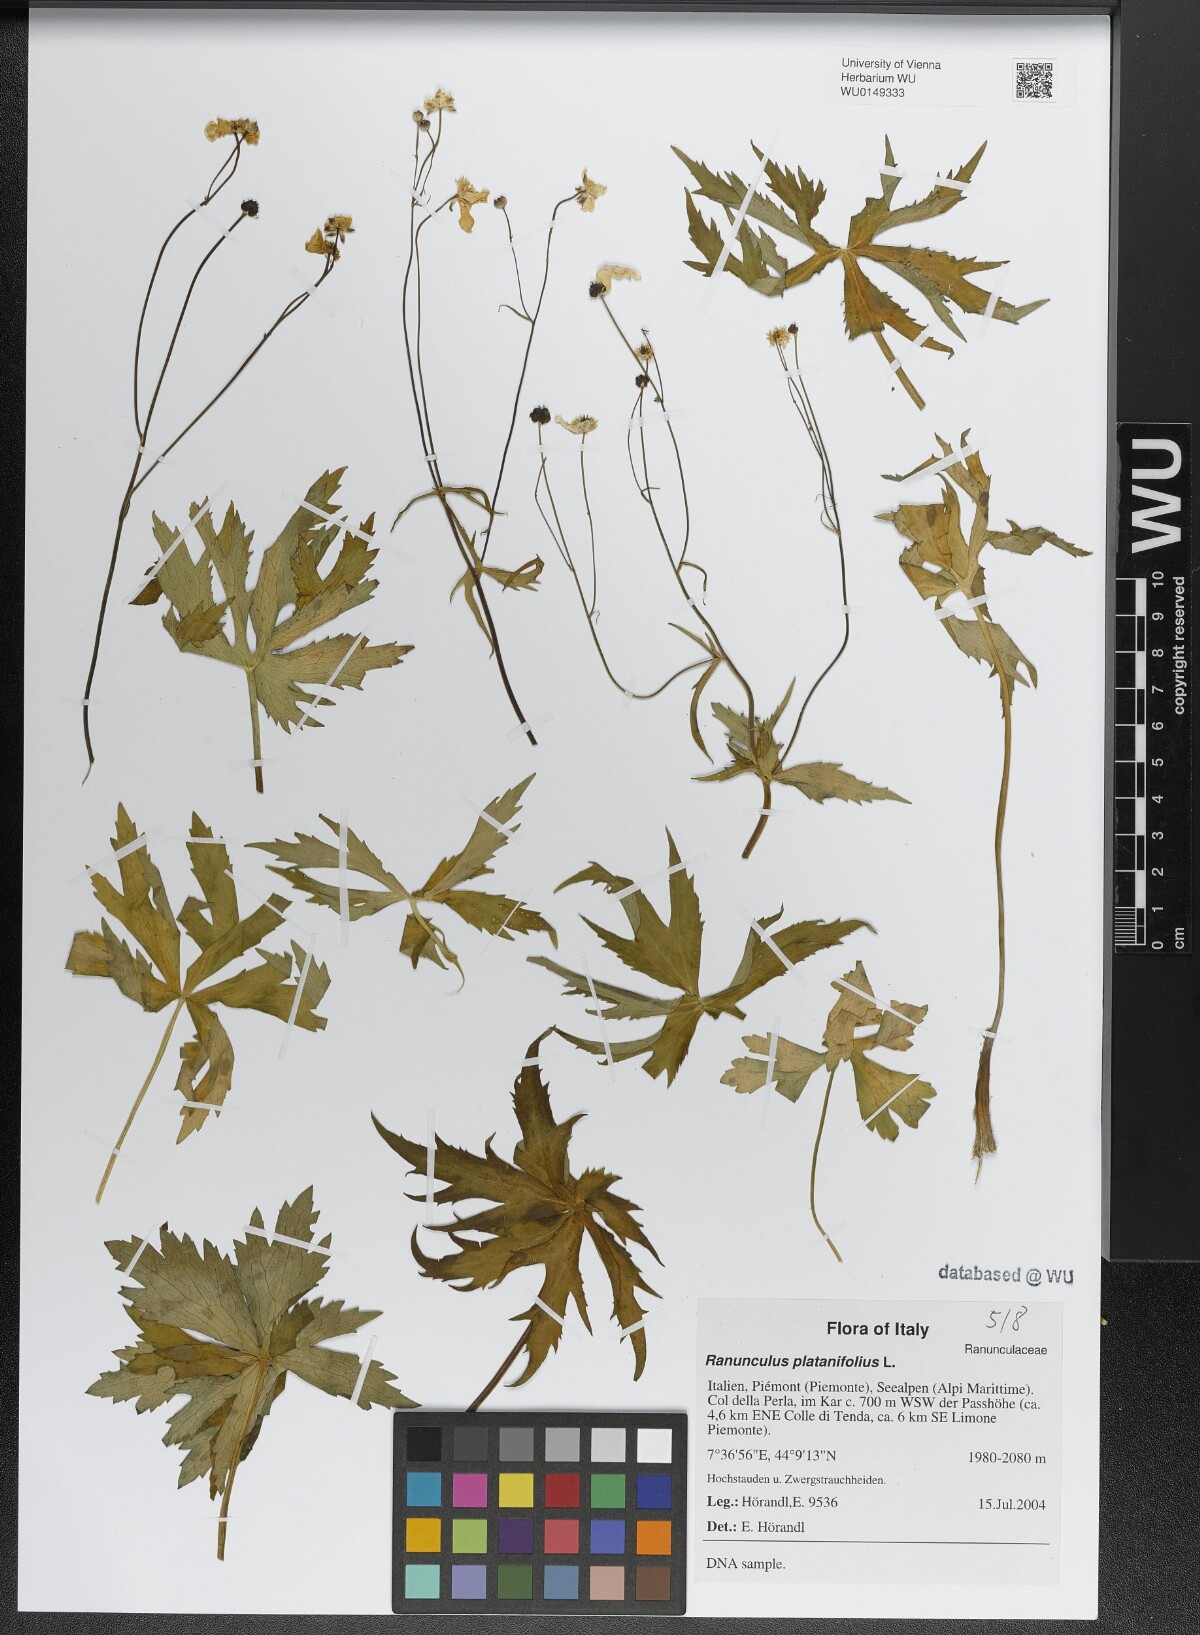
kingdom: Plantae
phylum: Tracheophyta
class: Magnoliopsida
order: Ranunculales
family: Ranunculaceae
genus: Ranunculus
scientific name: Ranunculus platanifolius
